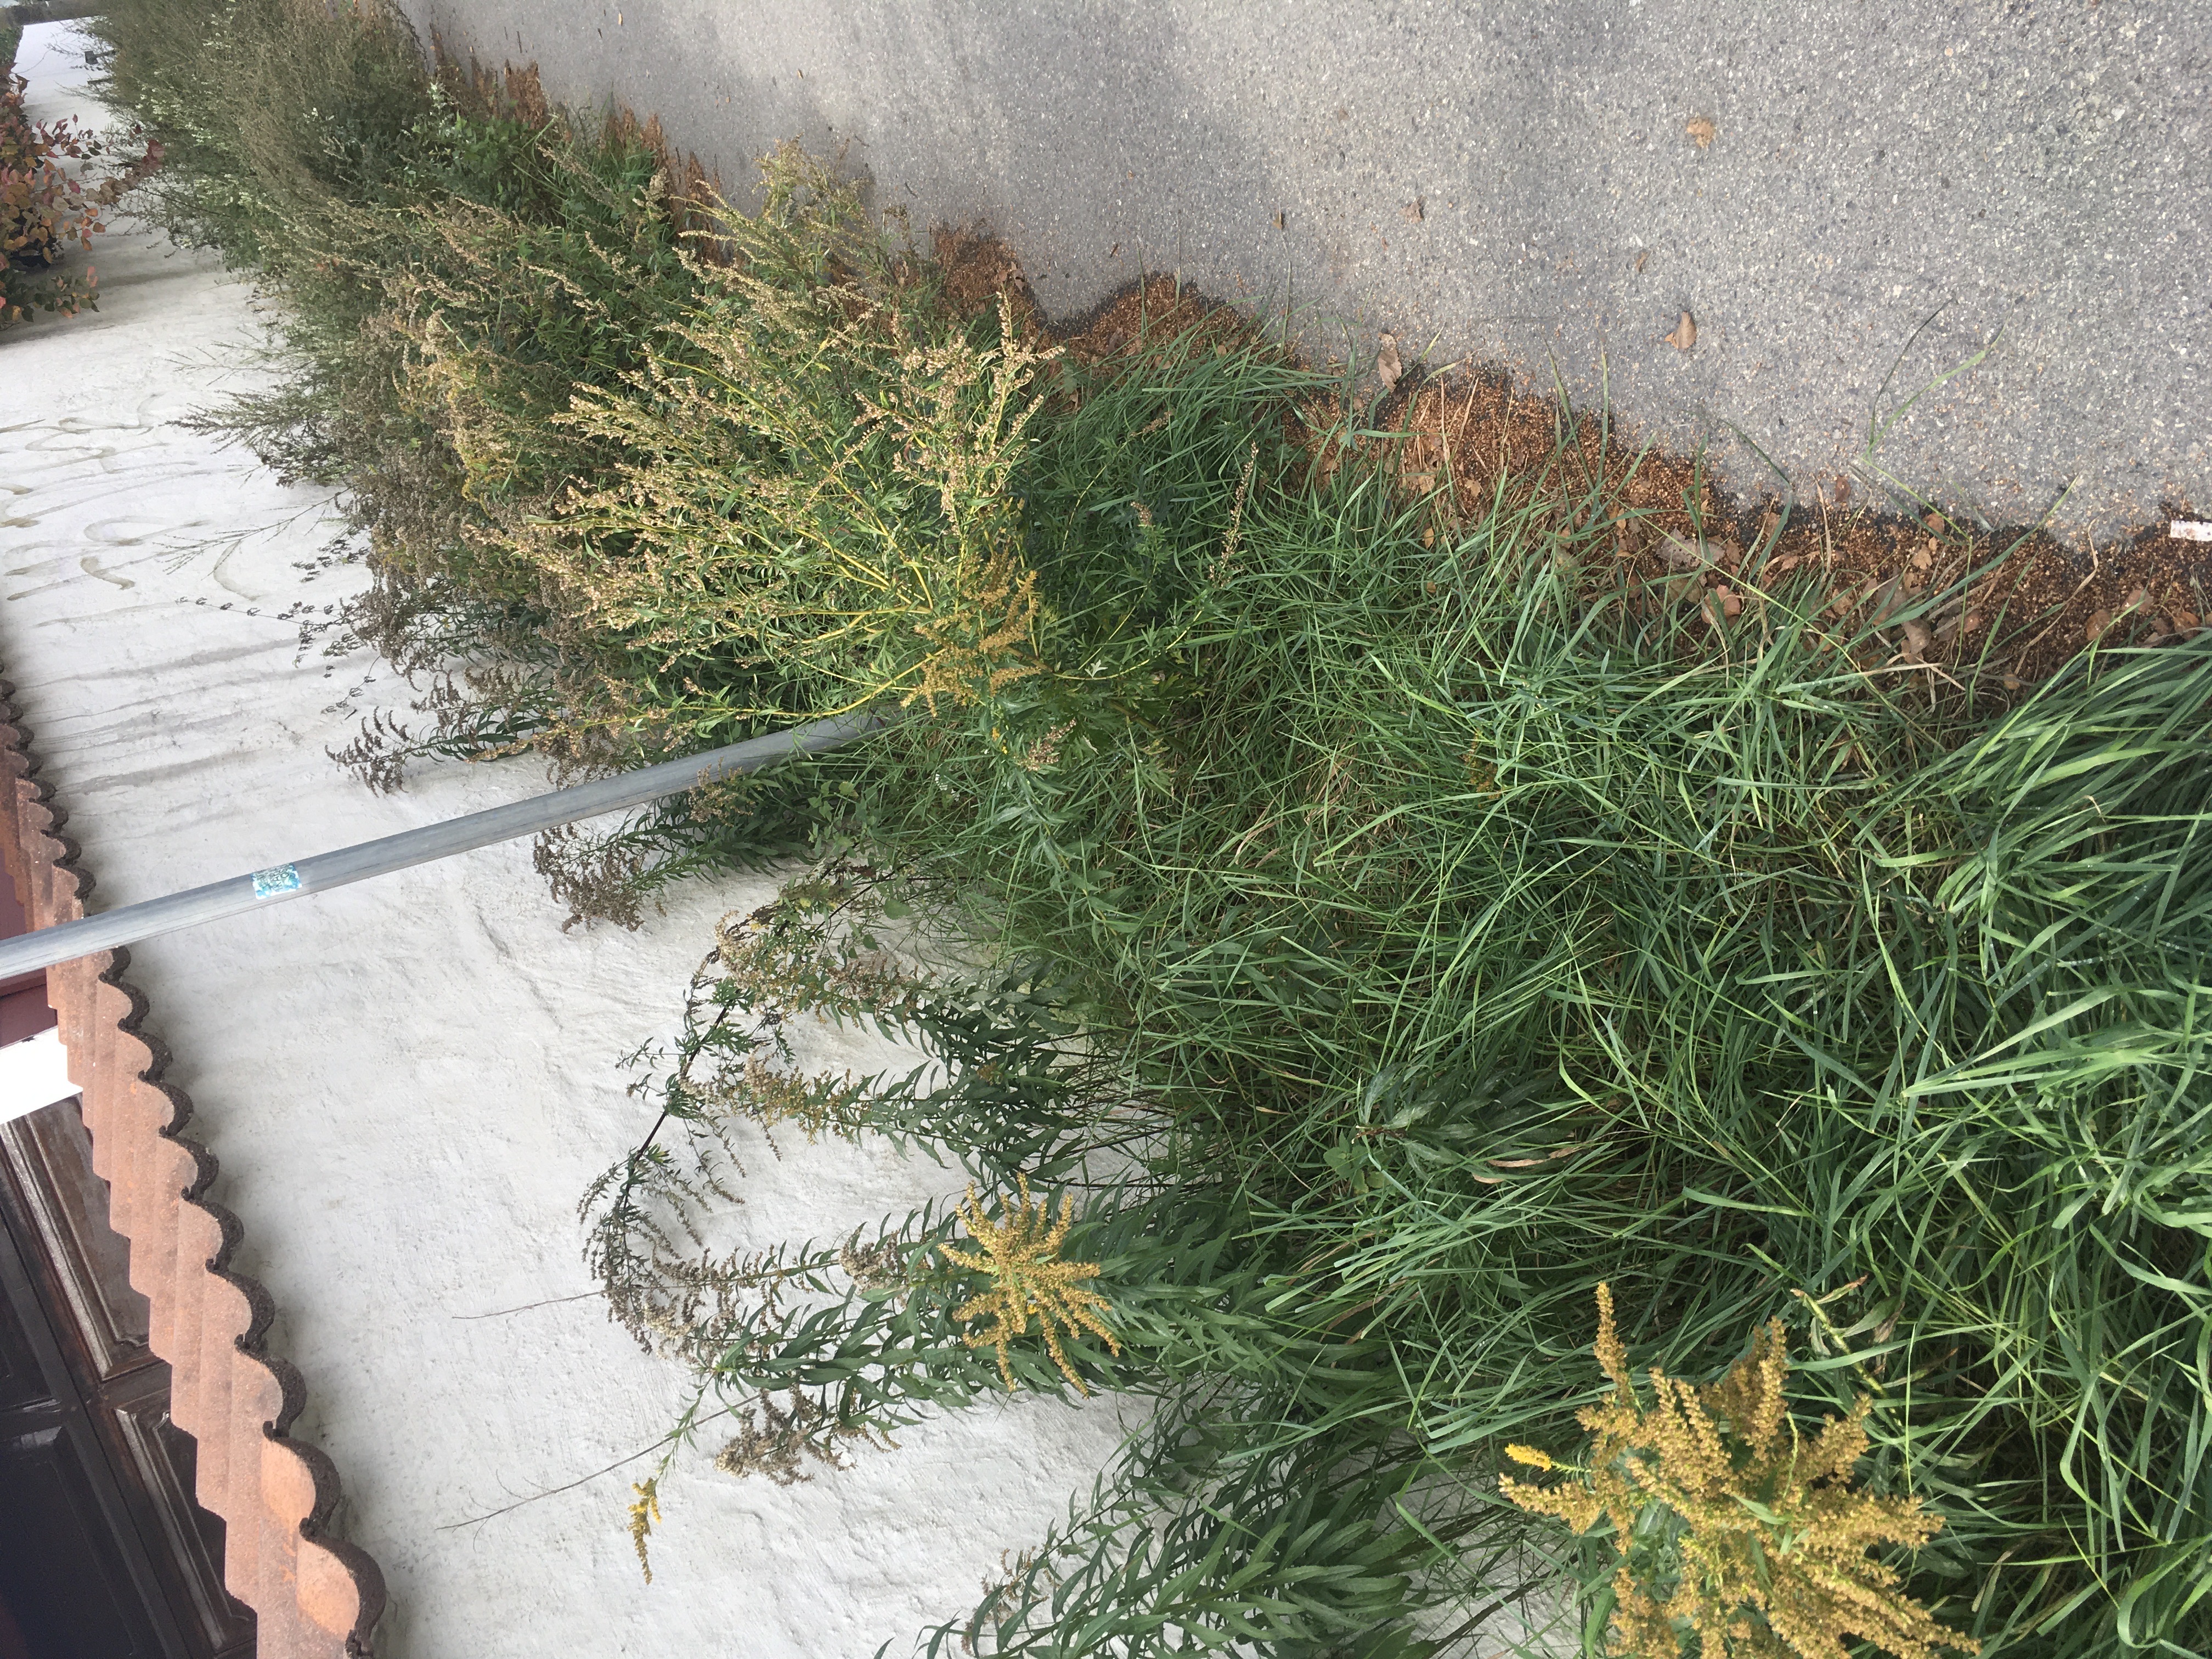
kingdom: Plantae
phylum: Tracheophyta
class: Magnoliopsida
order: Asterales
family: Asteraceae
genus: Solidago
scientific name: Solidago canadensis
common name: kanadagullris
